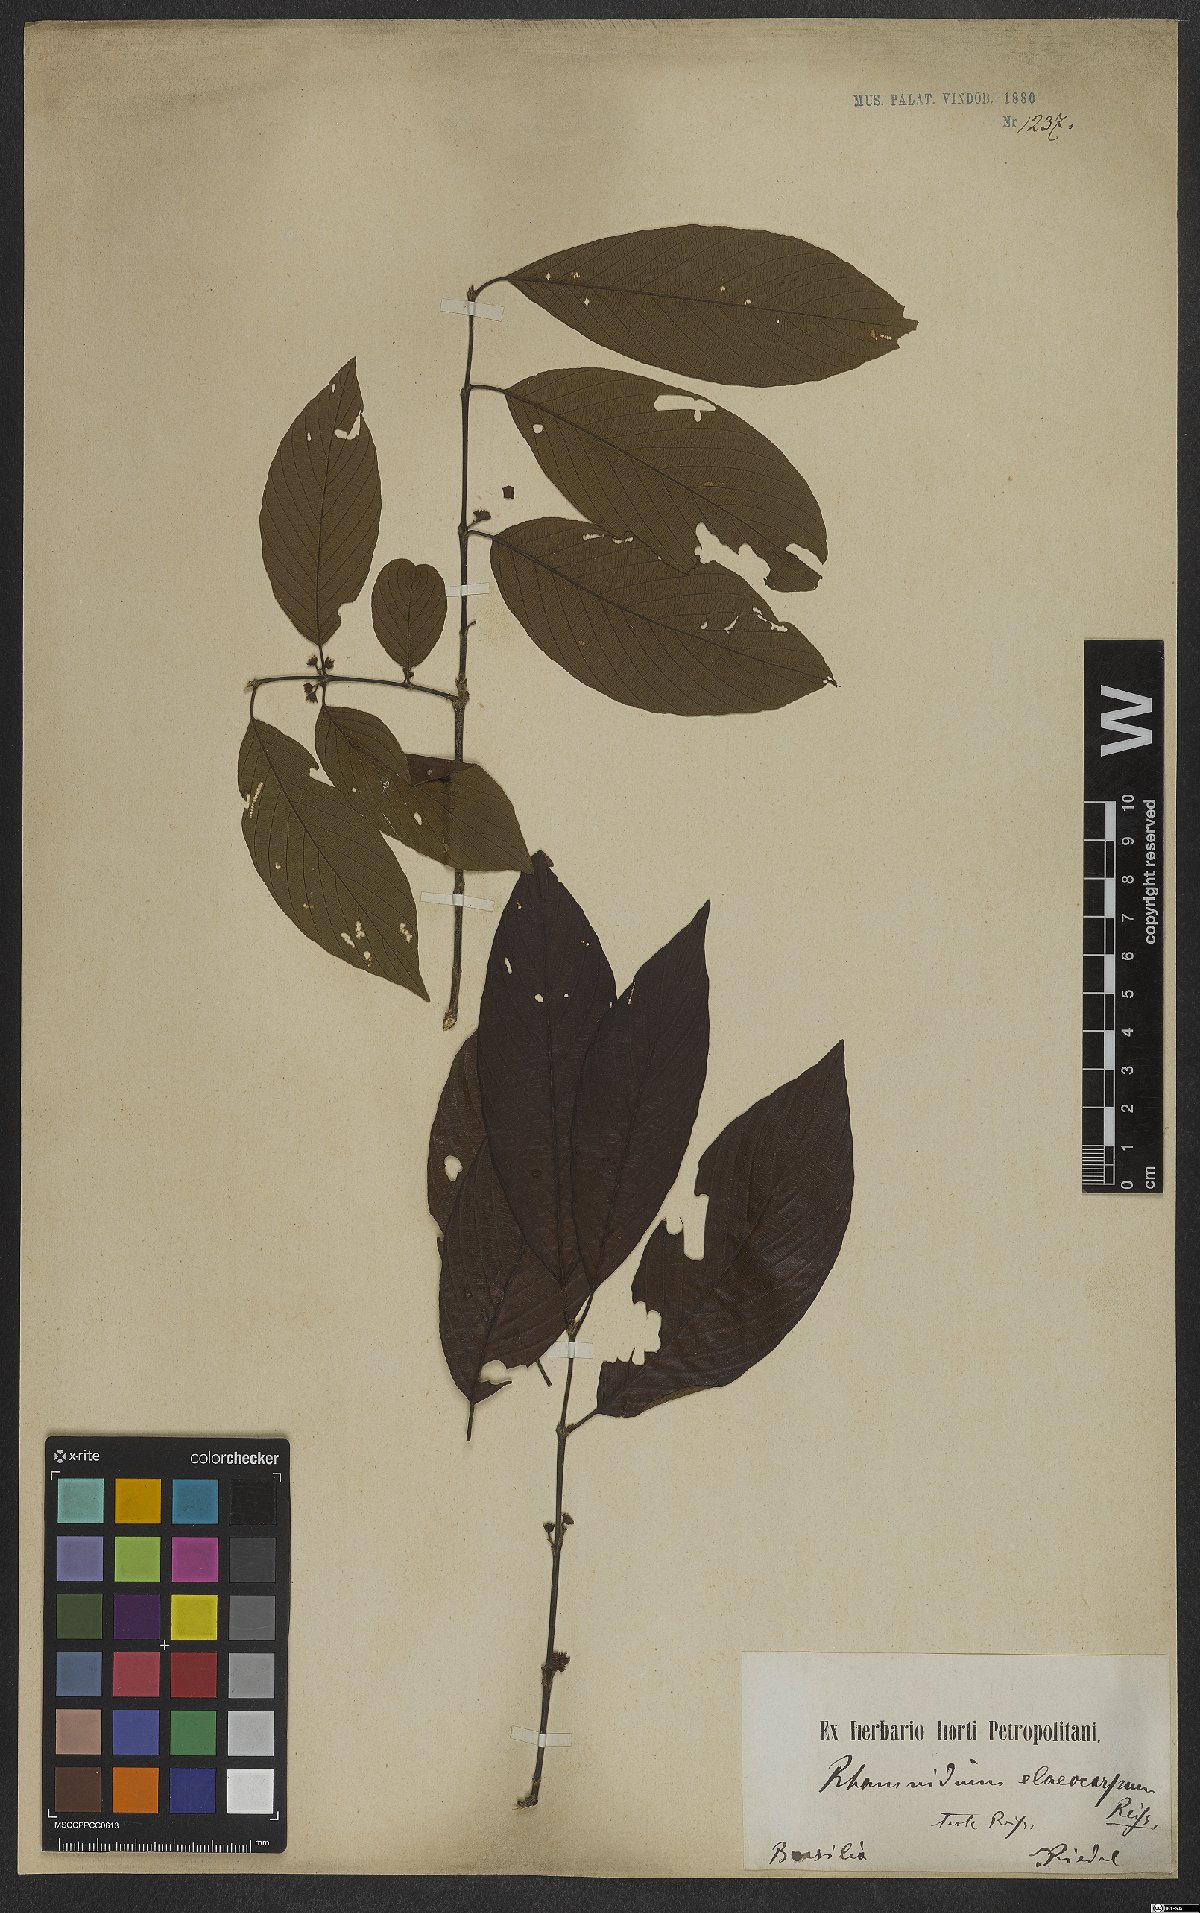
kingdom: Plantae
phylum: Tracheophyta
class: Magnoliopsida
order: Rosales
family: Rhamnaceae
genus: Rhamnidium
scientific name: Rhamnidium elaeocarpum
